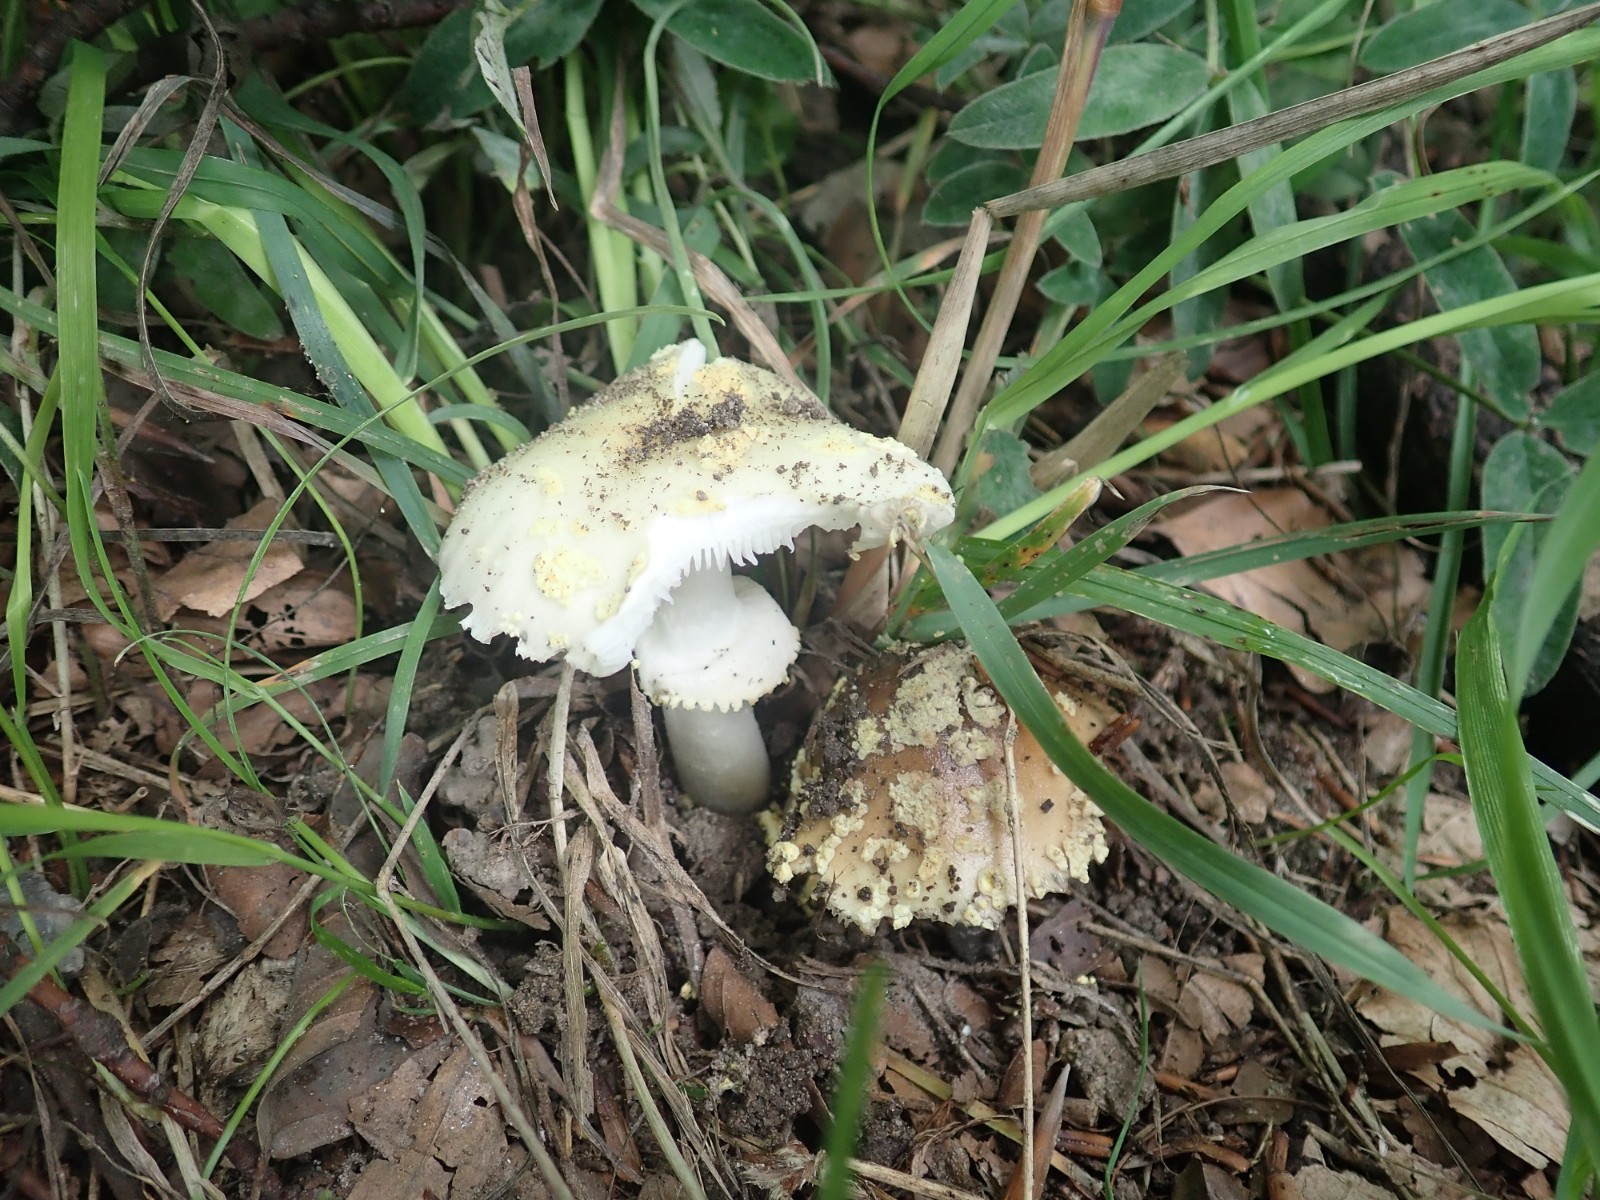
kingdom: Fungi
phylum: Basidiomycota
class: Agaricomycetes
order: Agaricales
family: Amanitaceae
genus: Amanita
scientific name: Amanita franchetii
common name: gulrandet fluesvamp
